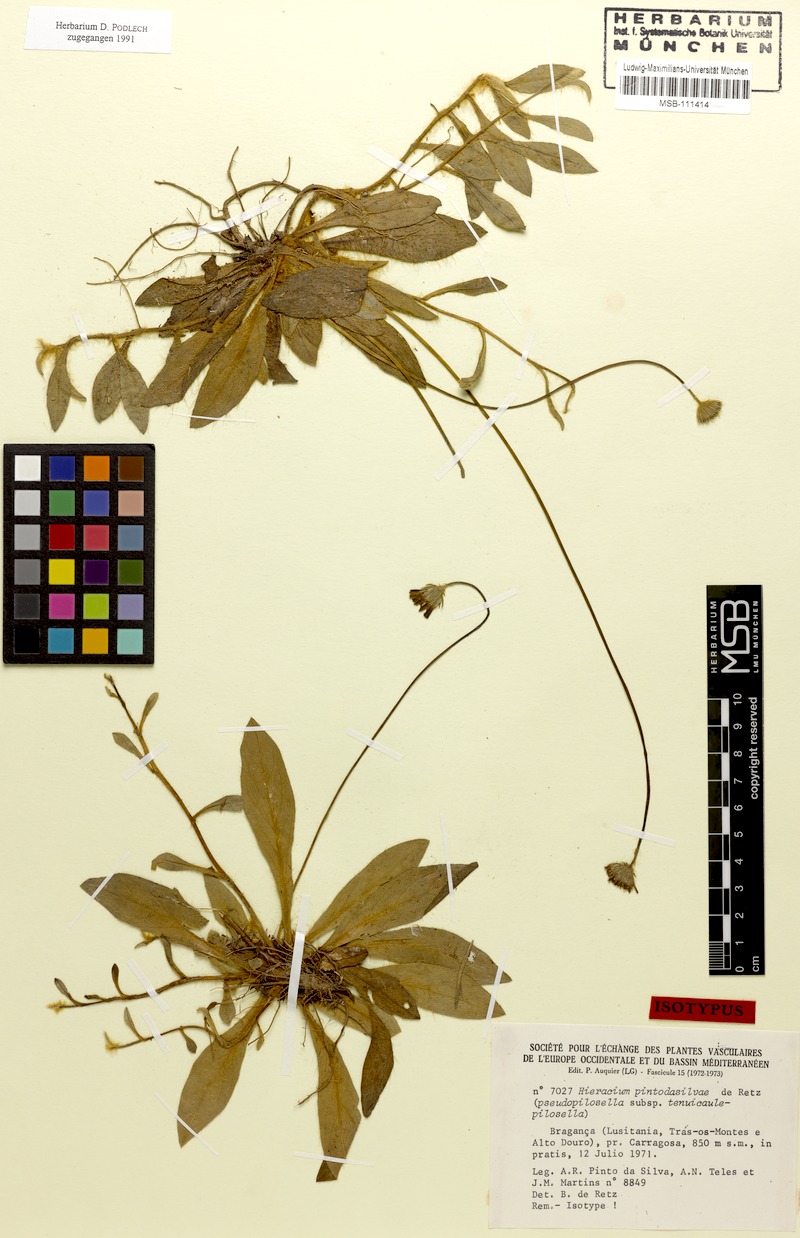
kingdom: Plantae
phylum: Tracheophyta
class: Magnoliopsida
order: Asterales
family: Asteraceae
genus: Pilosella
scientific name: Pilosella pintodasilvae
